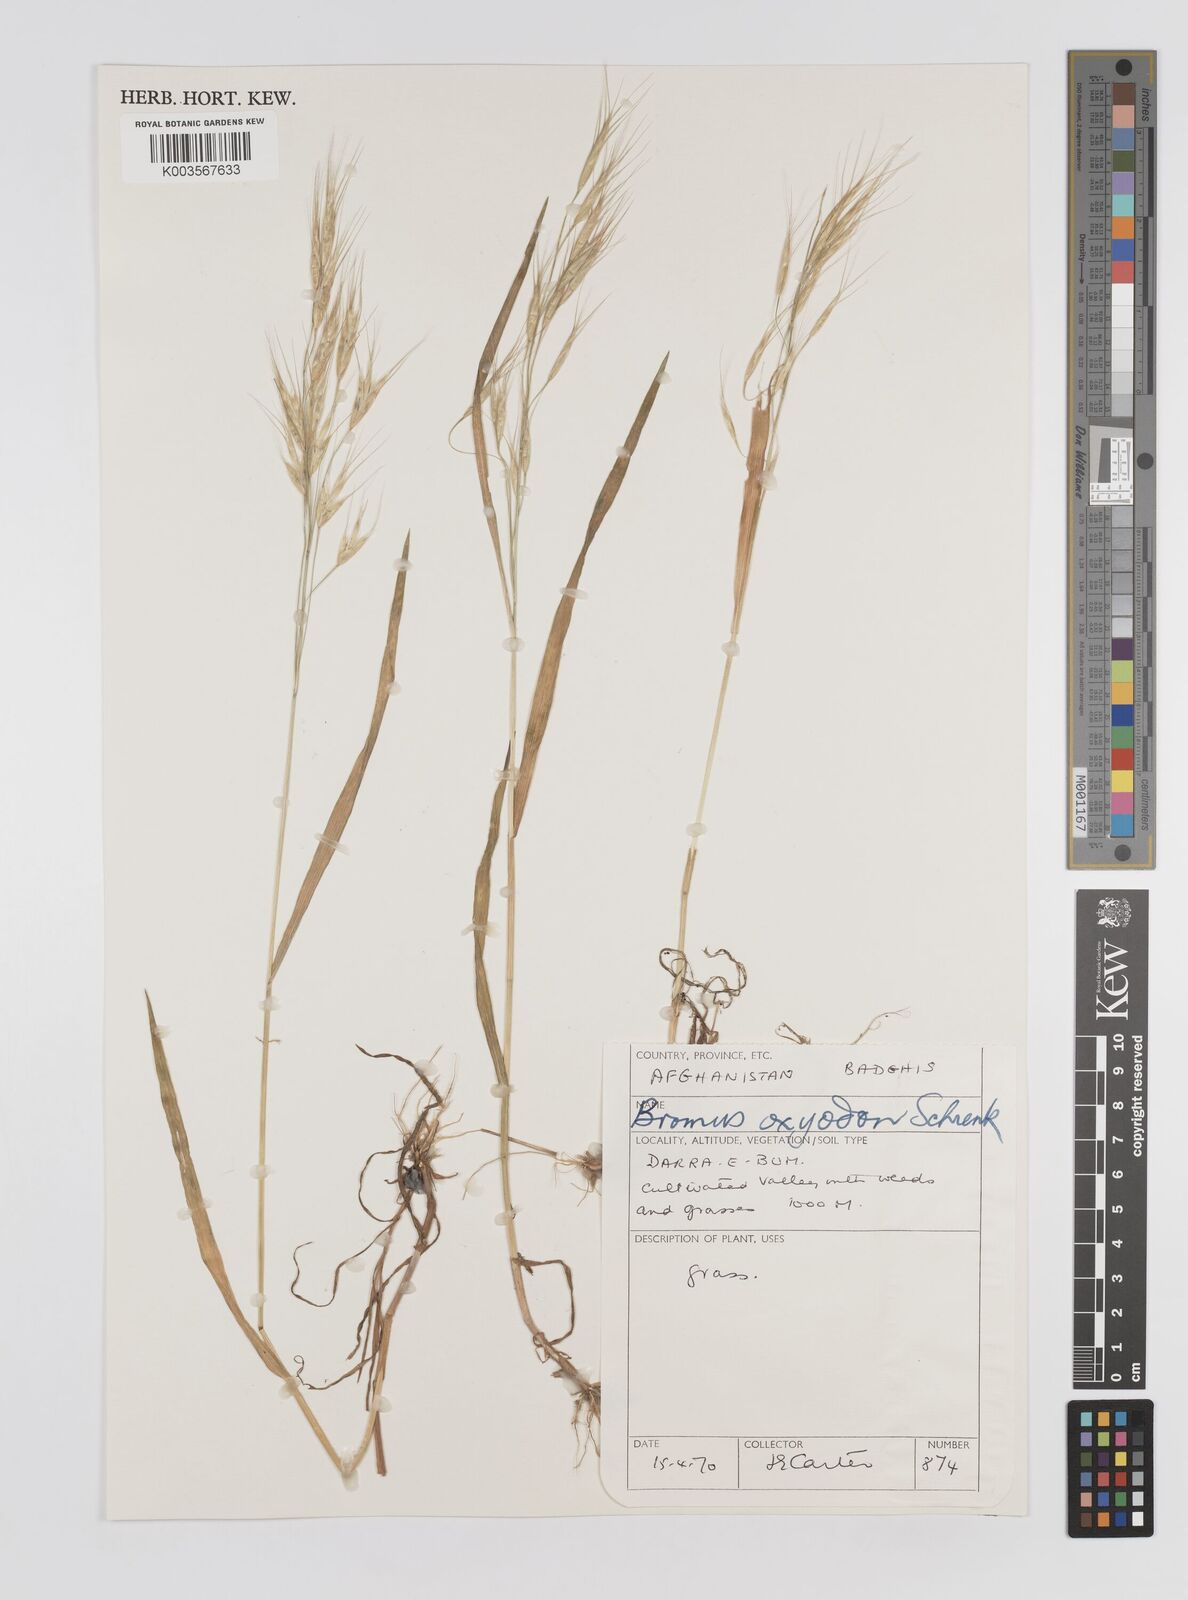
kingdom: Plantae
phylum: Tracheophyta
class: Liliopsida
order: Poales
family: Poaceae
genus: Bromus
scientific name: Bromus oxyodon
